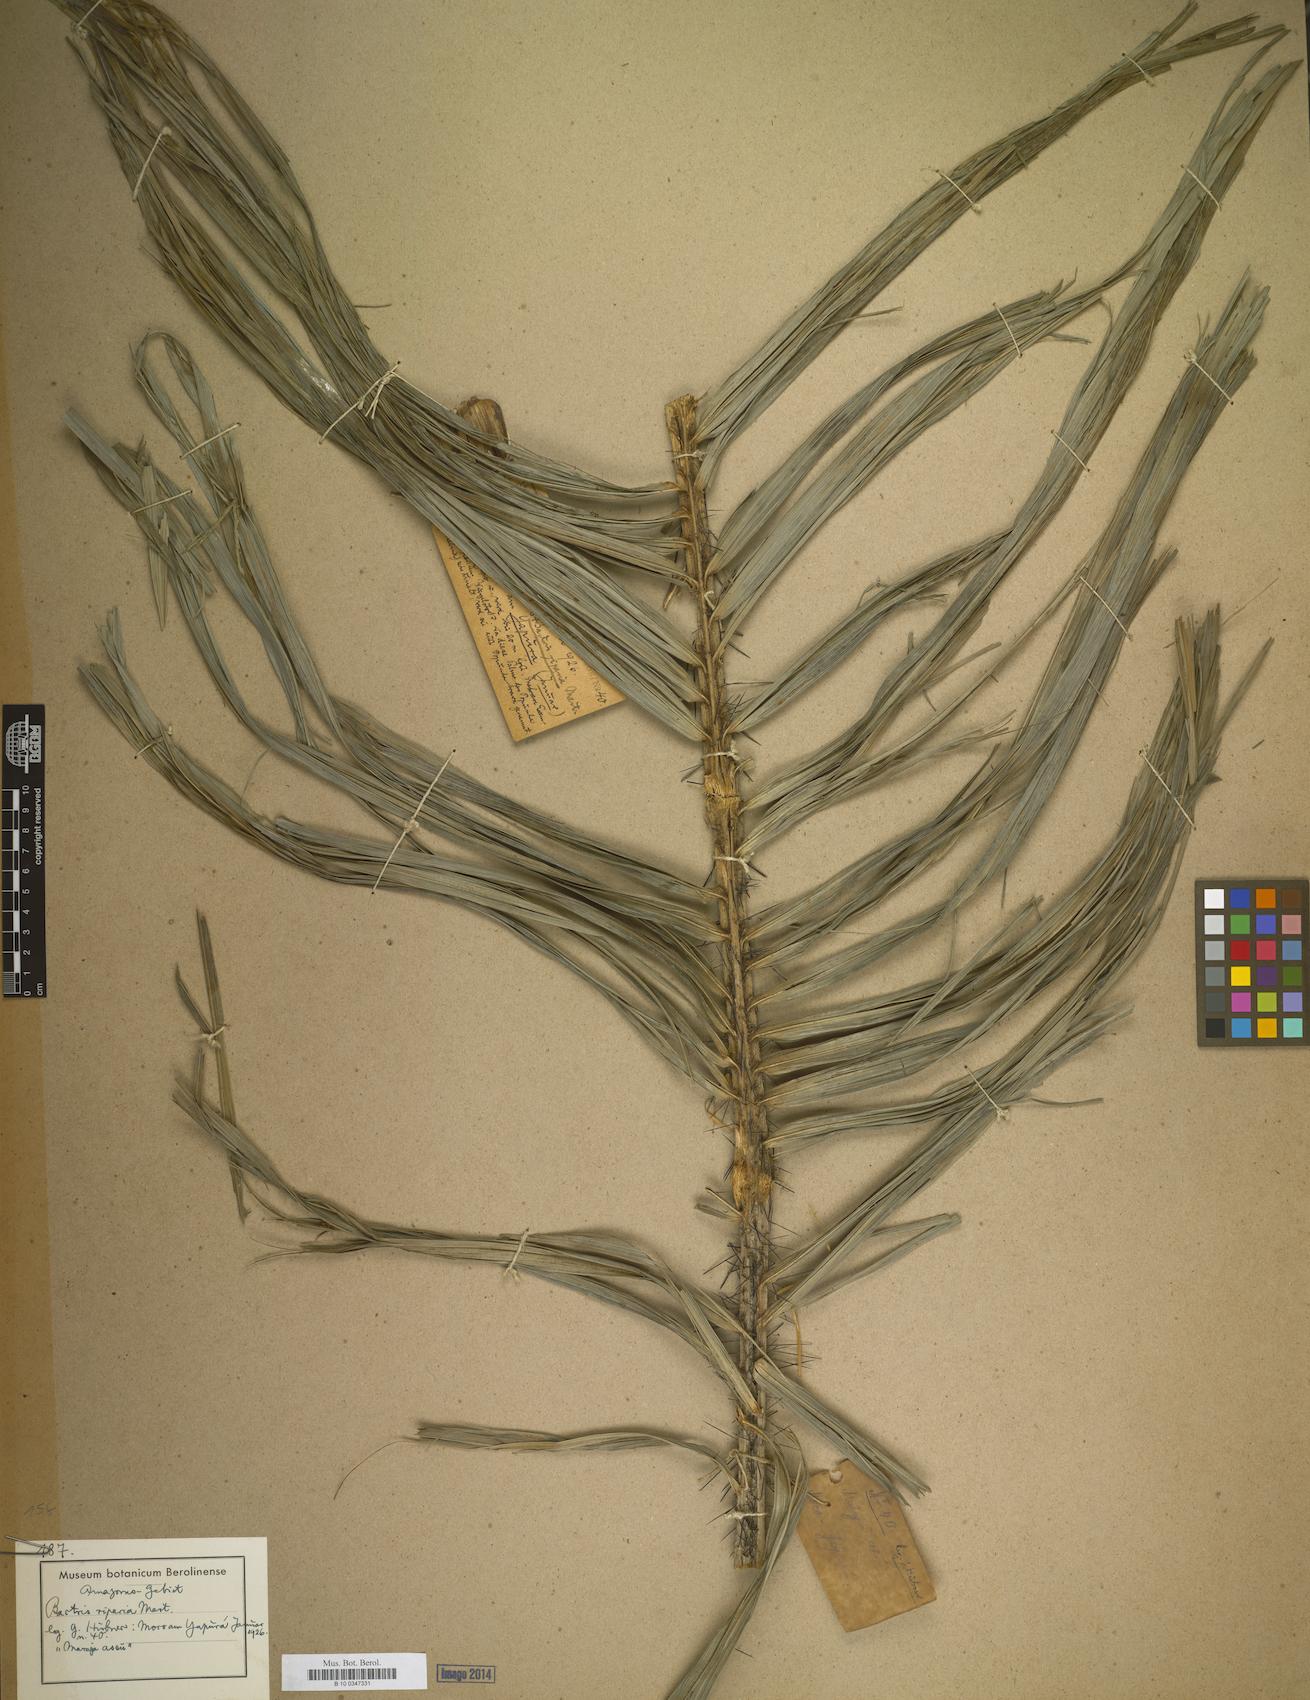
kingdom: Plantae
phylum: Tracheophyta
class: Liliopsida
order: Arecales
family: Arecaceae
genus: Bactris
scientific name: Bactris riparia
